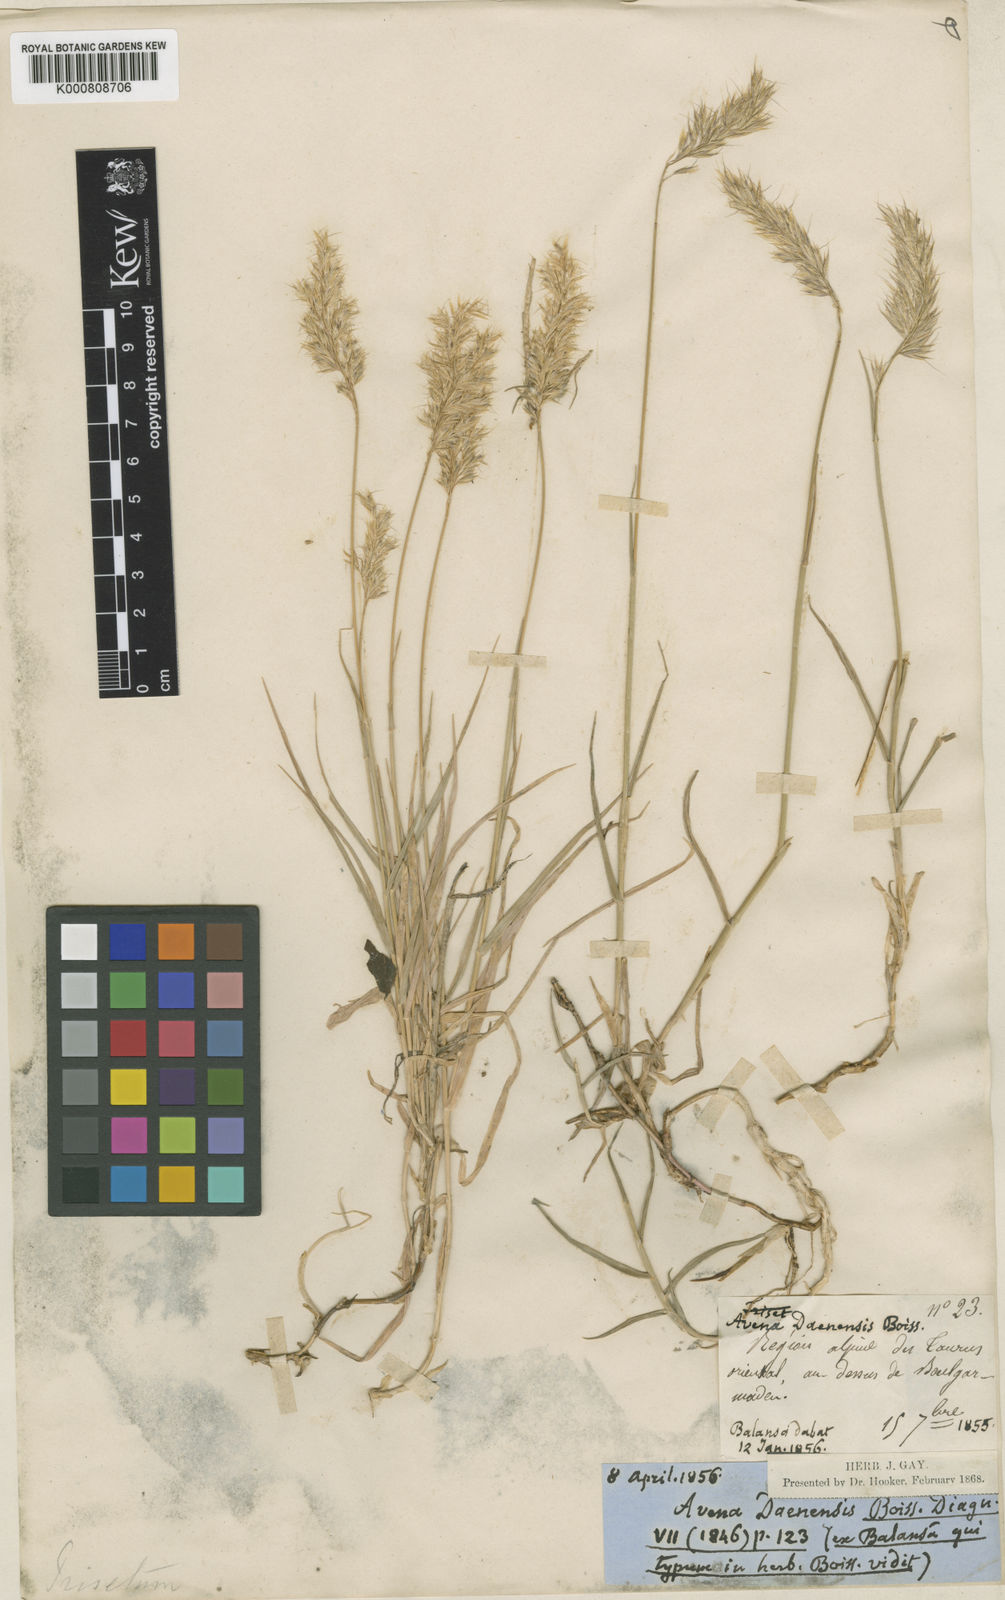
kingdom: Plantae
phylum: Tracheophyta
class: Liliopsida
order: Poales
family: Poaceae
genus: Trisetum
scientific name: Trisetum rigidum
